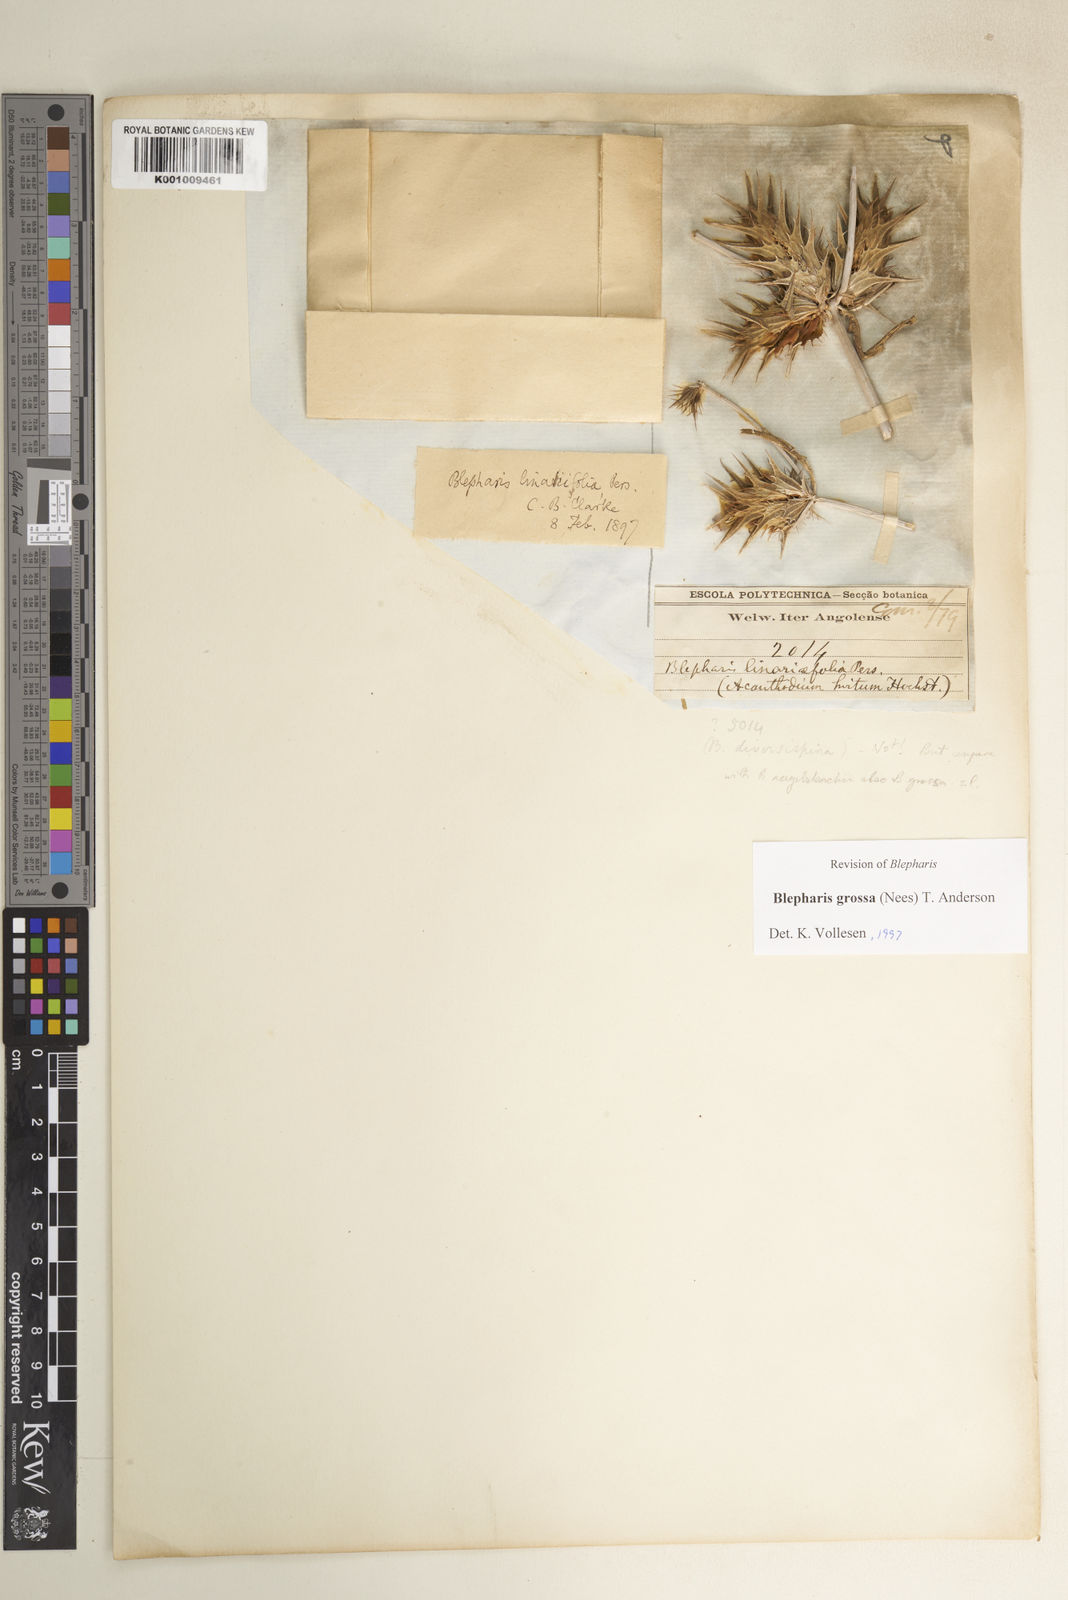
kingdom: Plantae
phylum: Tracheophyta
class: Magnoliopsida
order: Lamiales
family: Acanthaceae
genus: Blepharis
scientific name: Blepharis grossa
